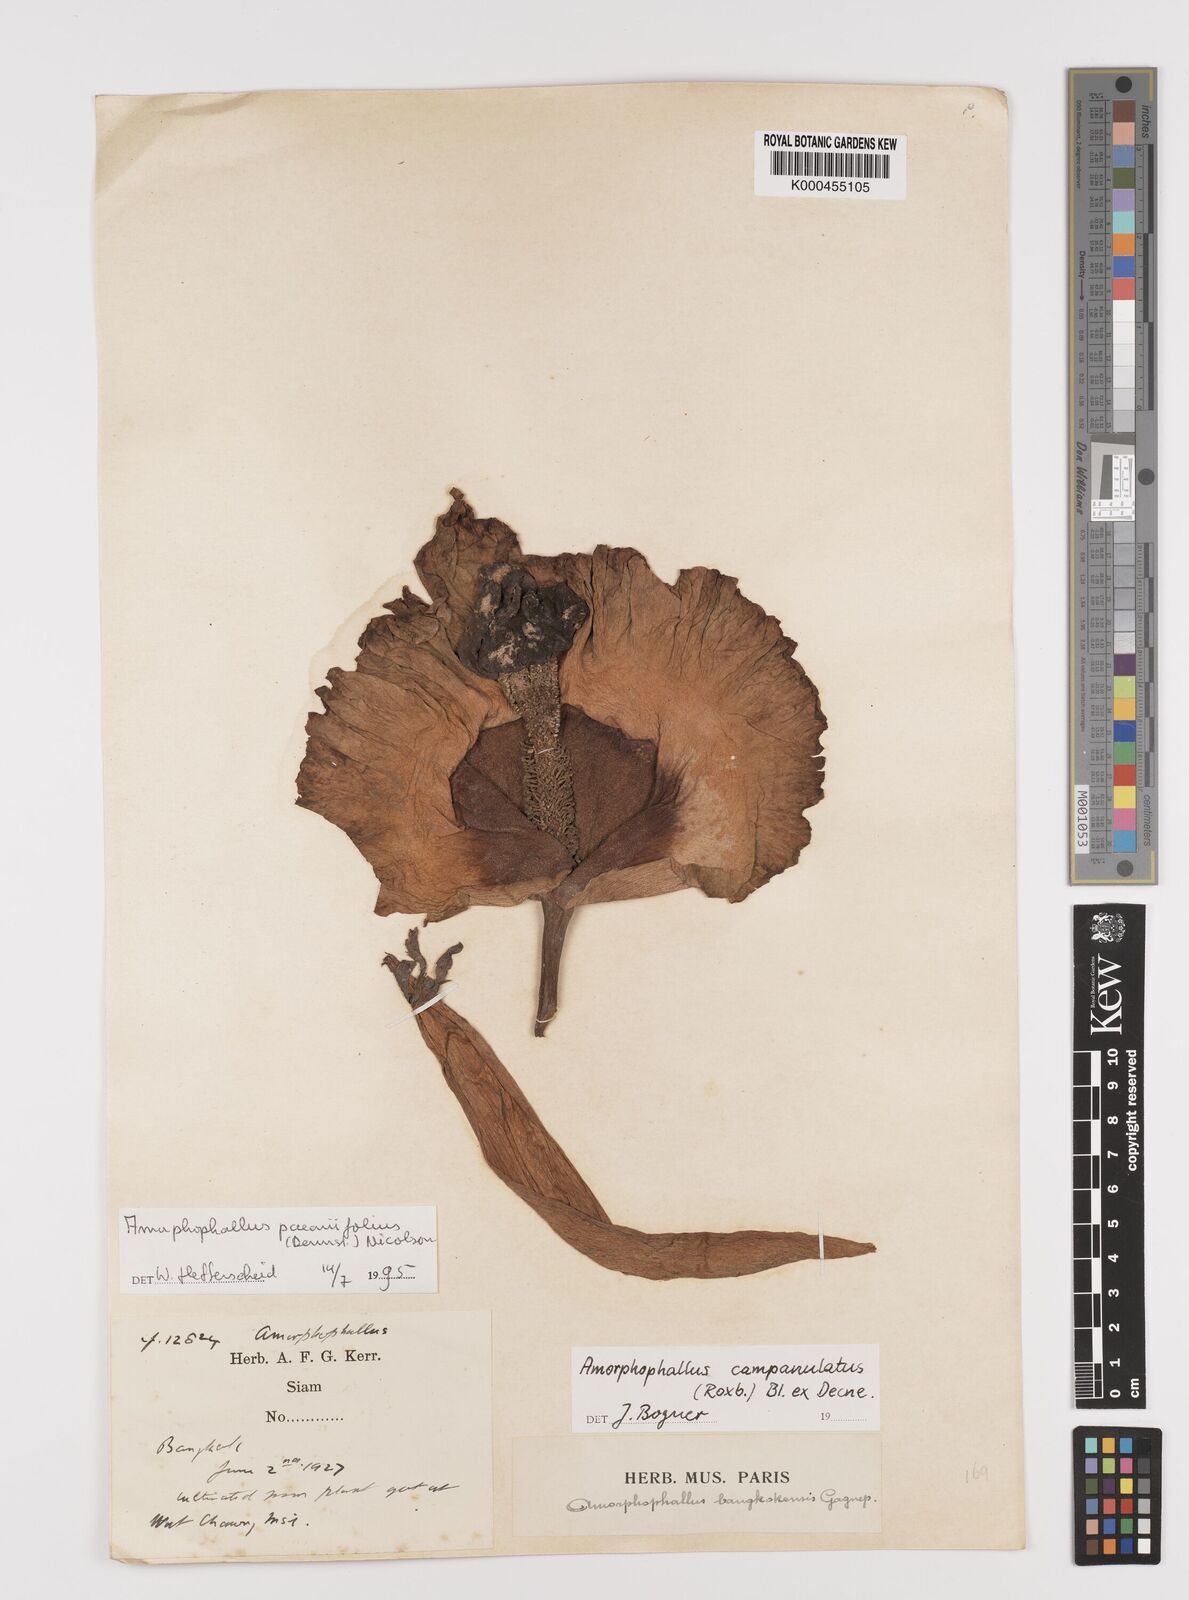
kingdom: Plantae
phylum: Tracheophyta
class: Liliopsida
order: Alismatales
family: Araceae
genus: Amorphophallus
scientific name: Amorphophallus paeoniifolius
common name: Telinga-potato
